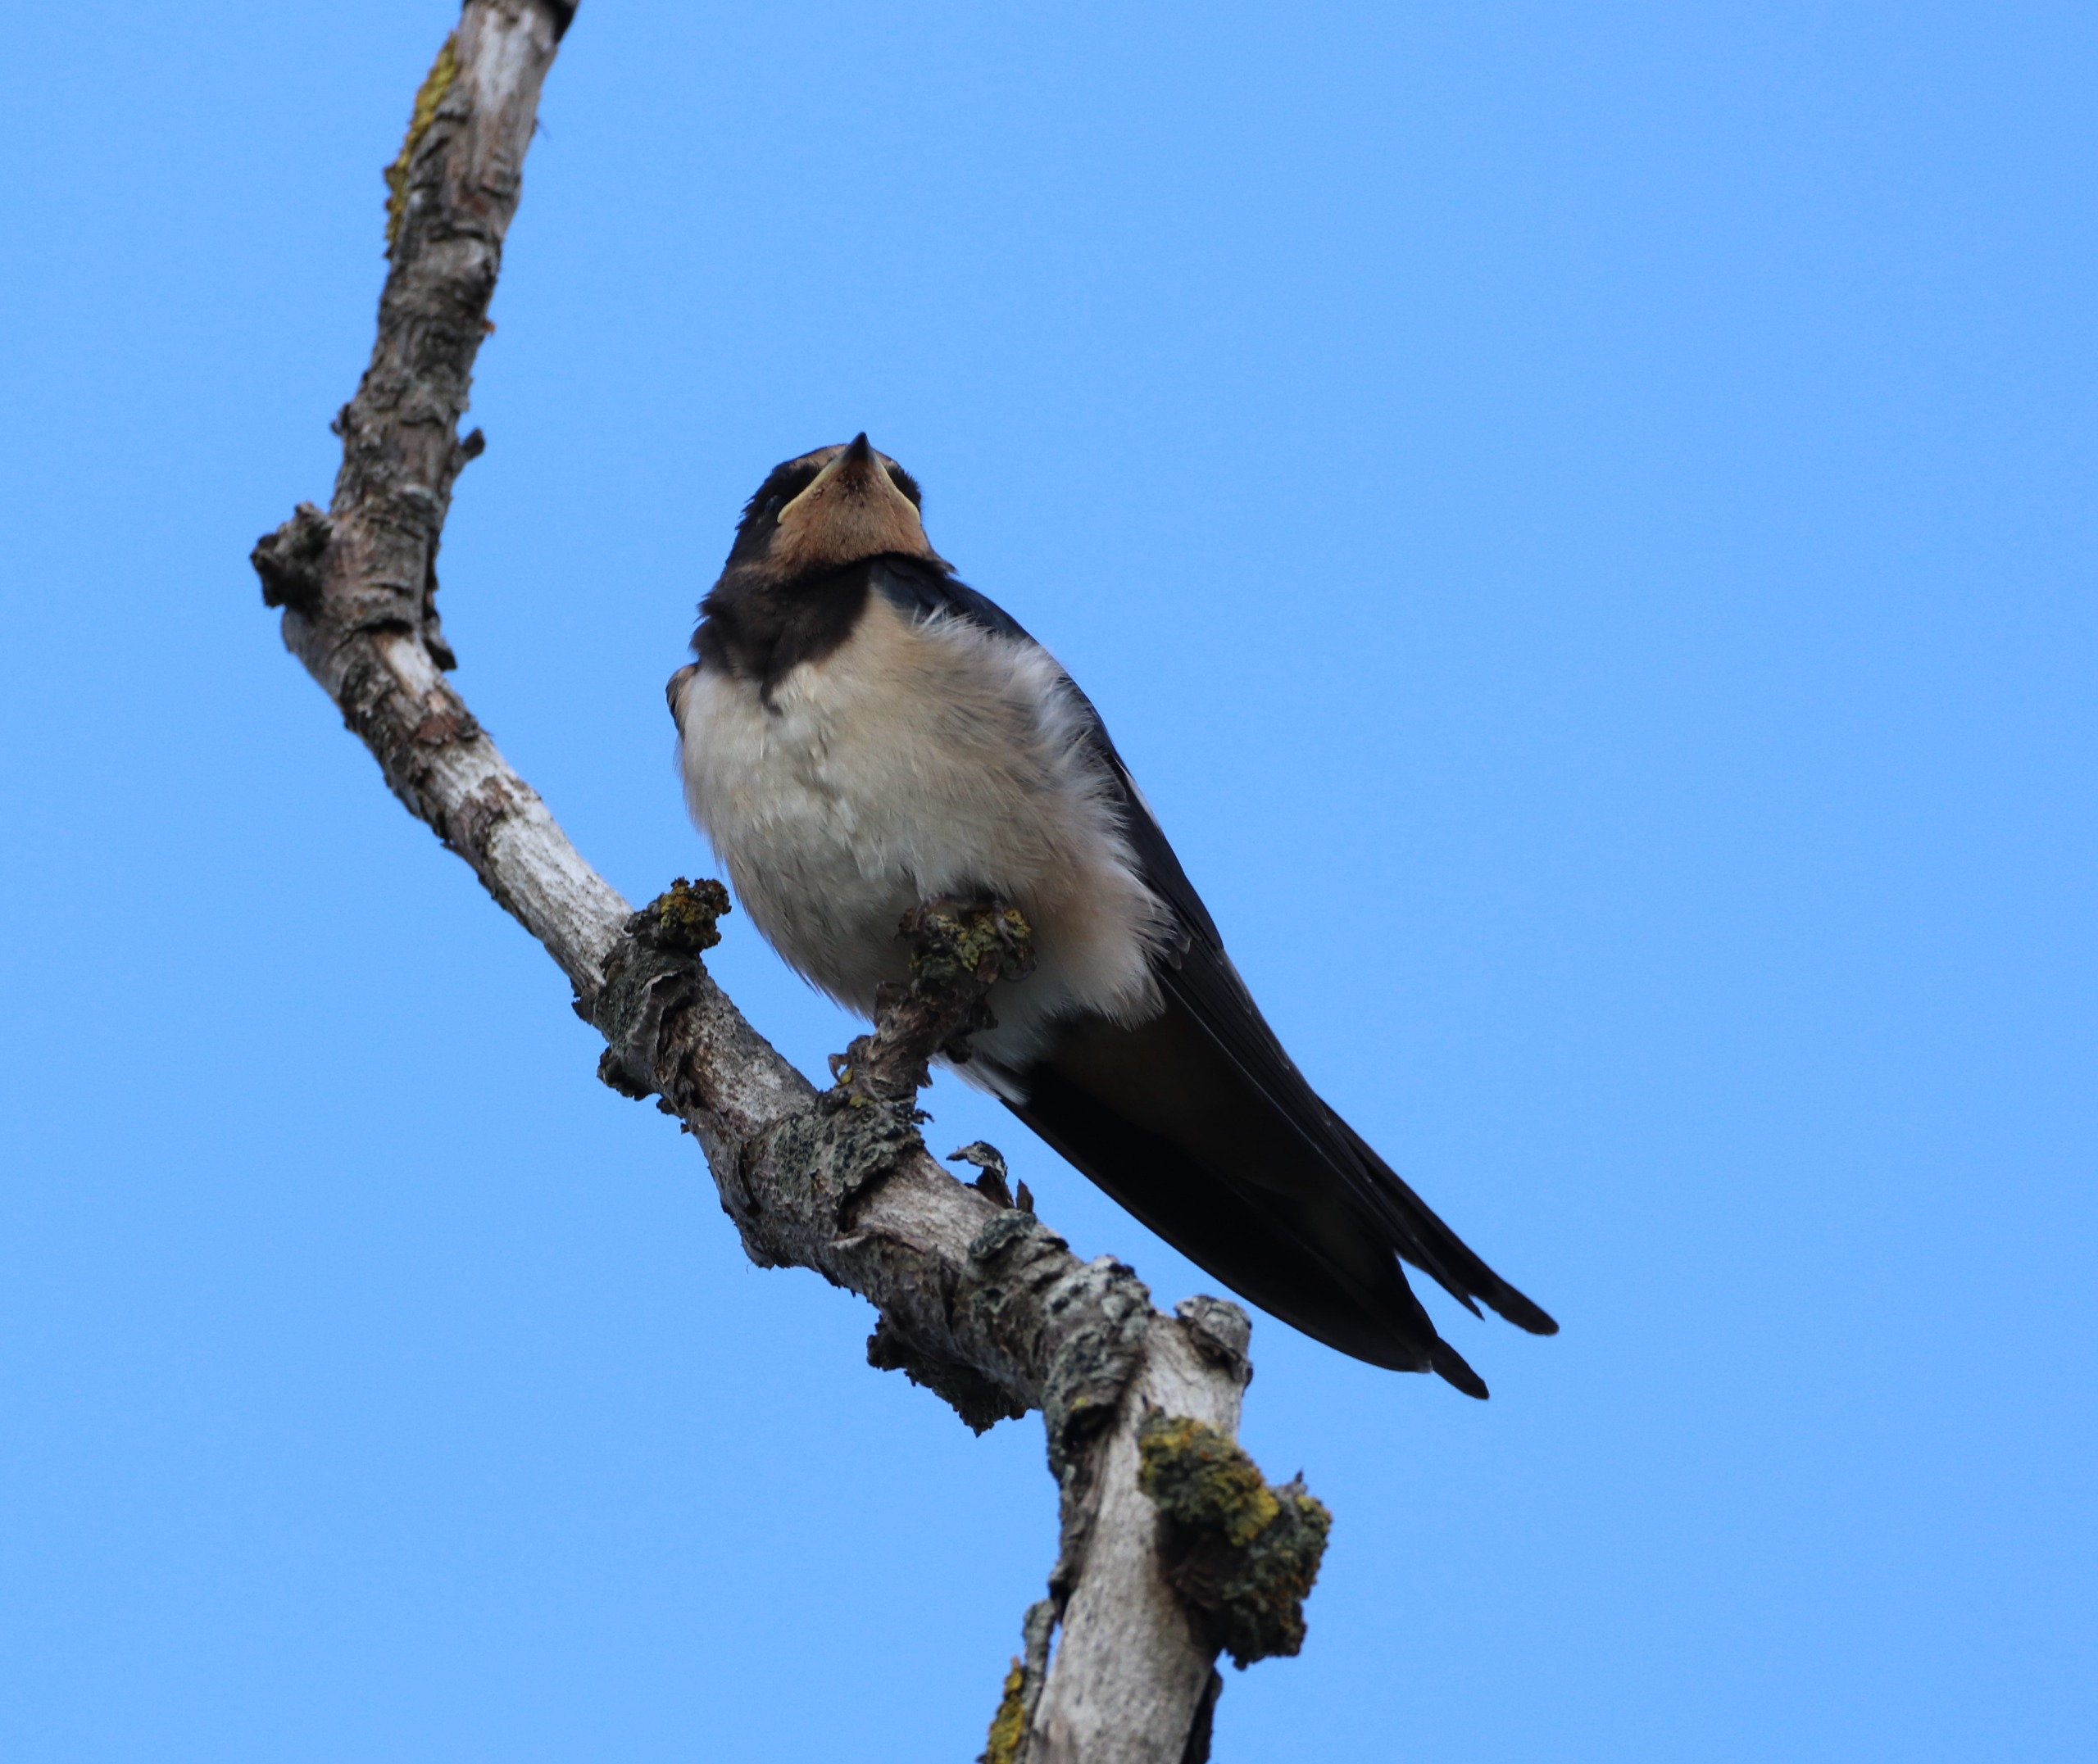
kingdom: Animalia
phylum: Chordata
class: Aves
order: Passeriformes
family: Hirundinidae
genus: Hirundo
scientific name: Hirundo rustica
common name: Landsvale
